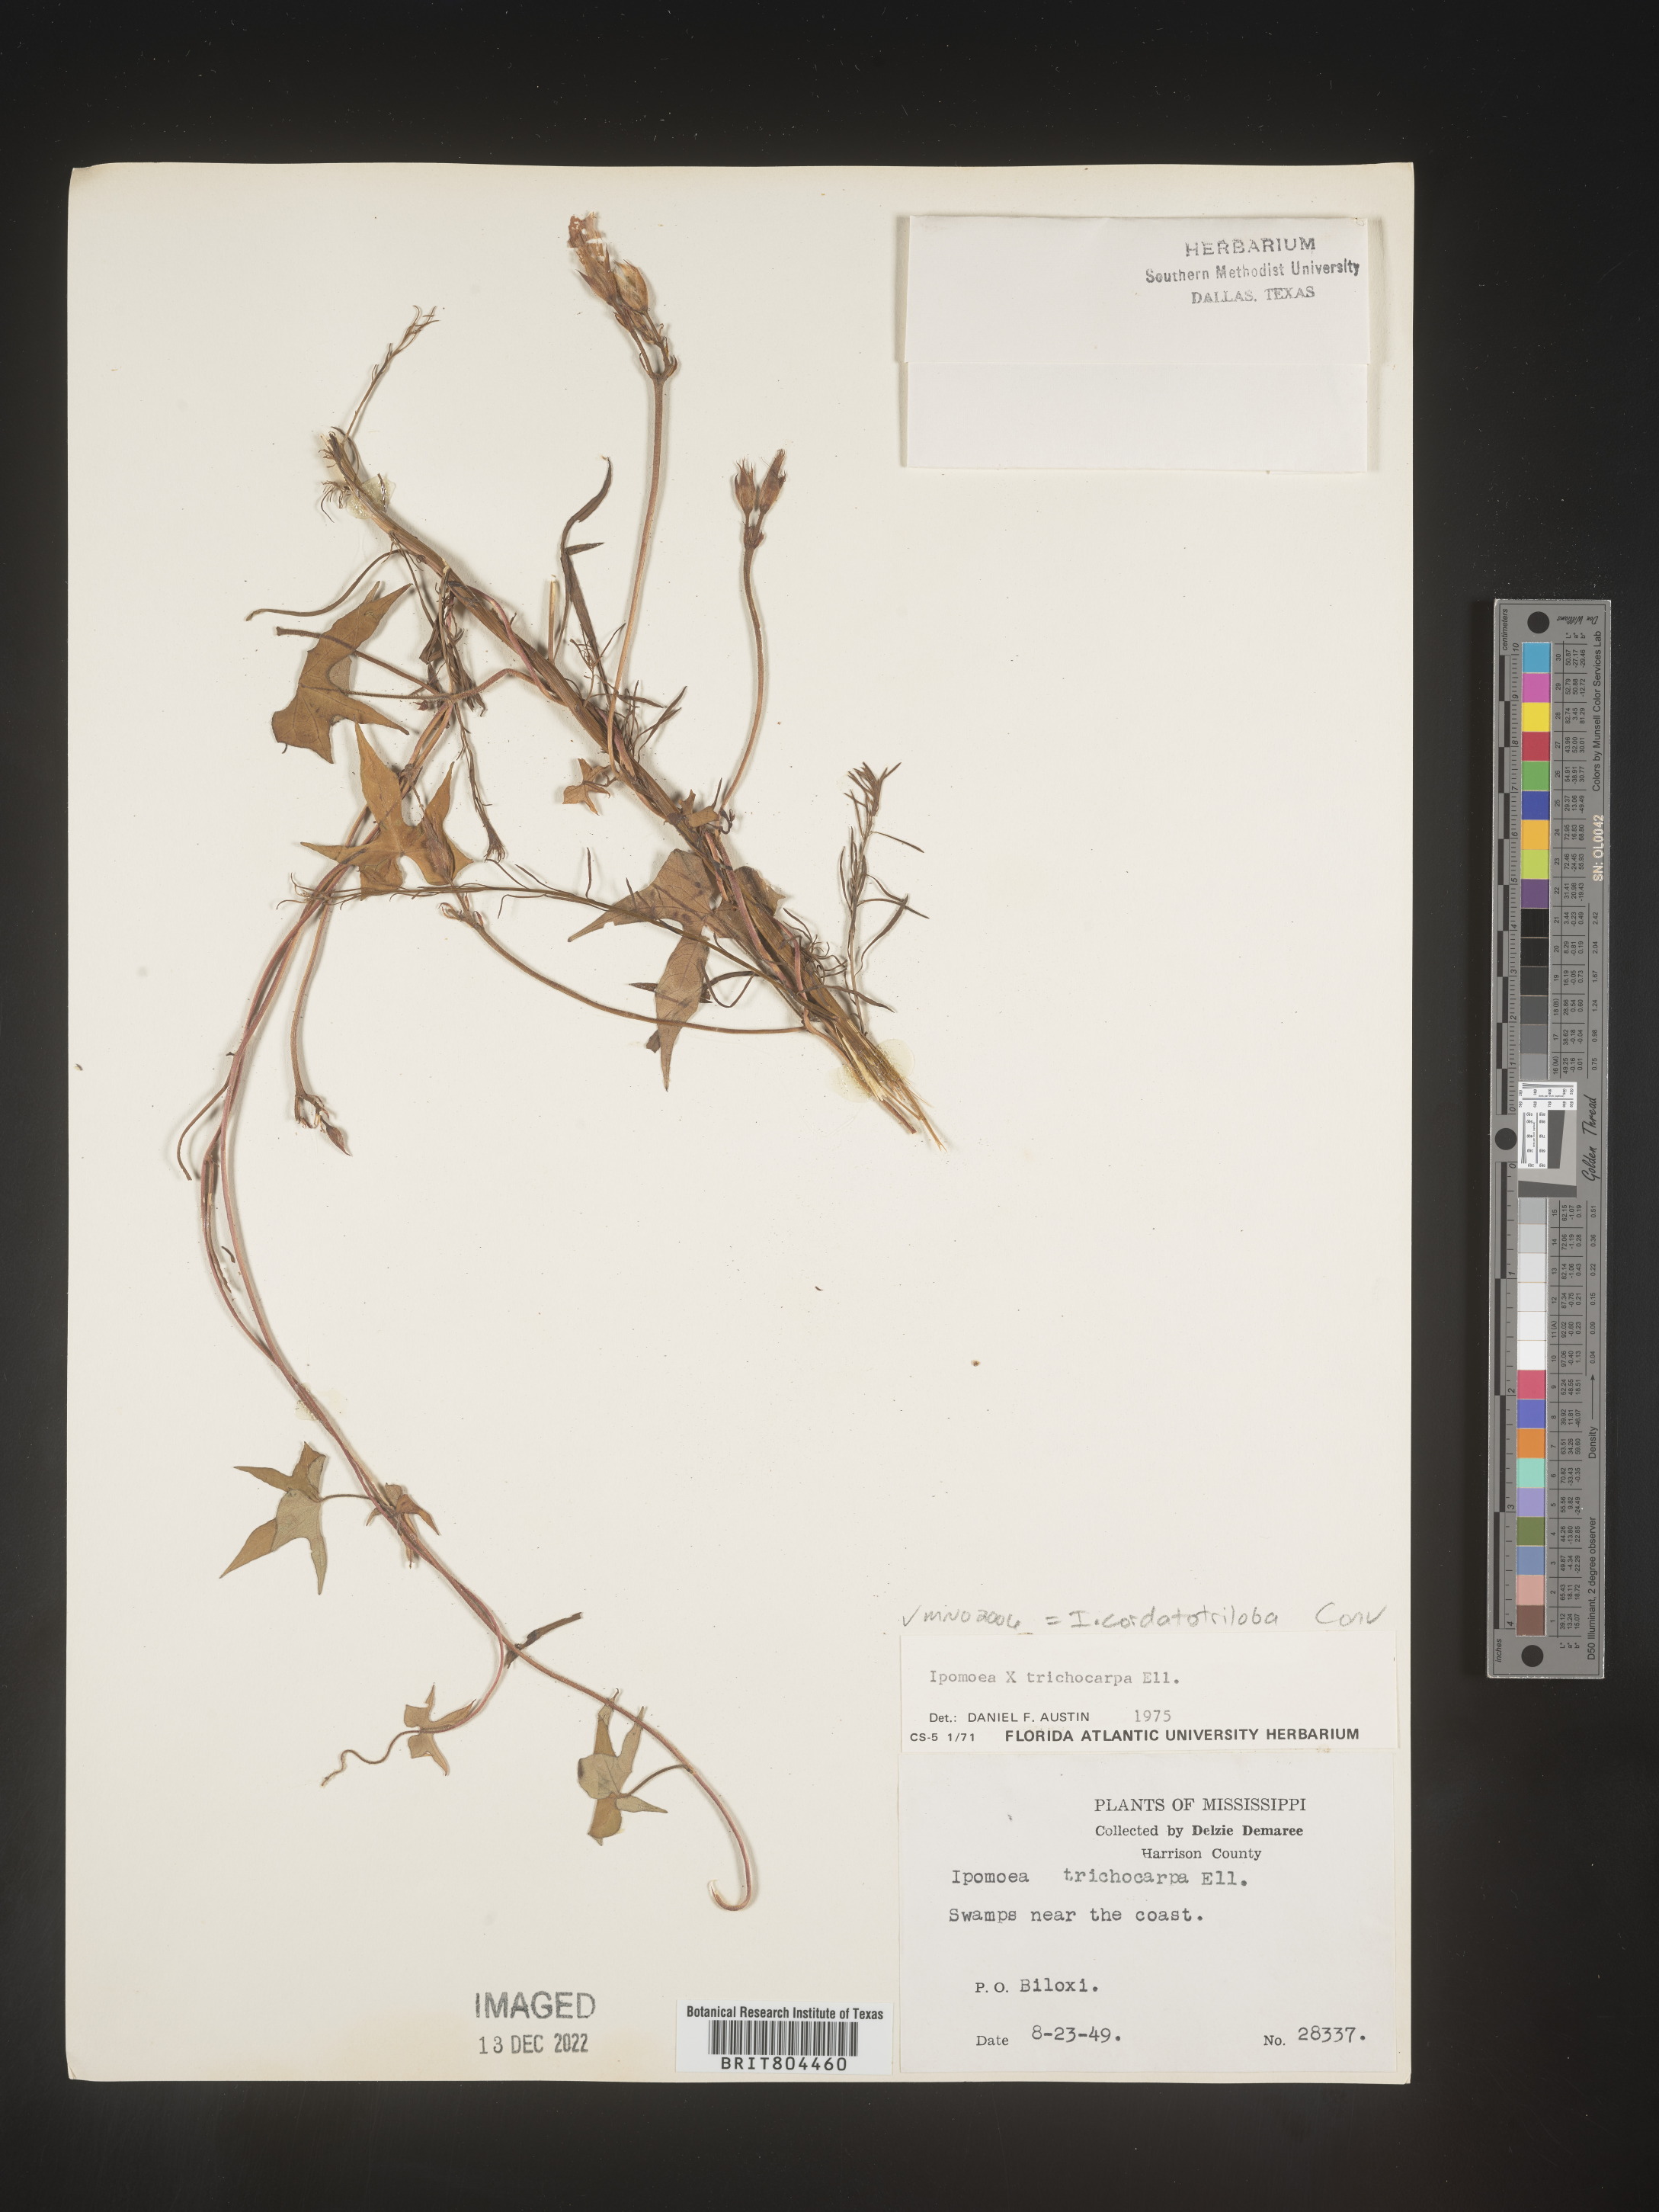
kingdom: Plantae
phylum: Tracheophyta
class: Magnoliopsida
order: Solanales
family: Convolvulaceae
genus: Ipomoea
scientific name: Ipomoea cordatotriloba
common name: Cotton morning glory
